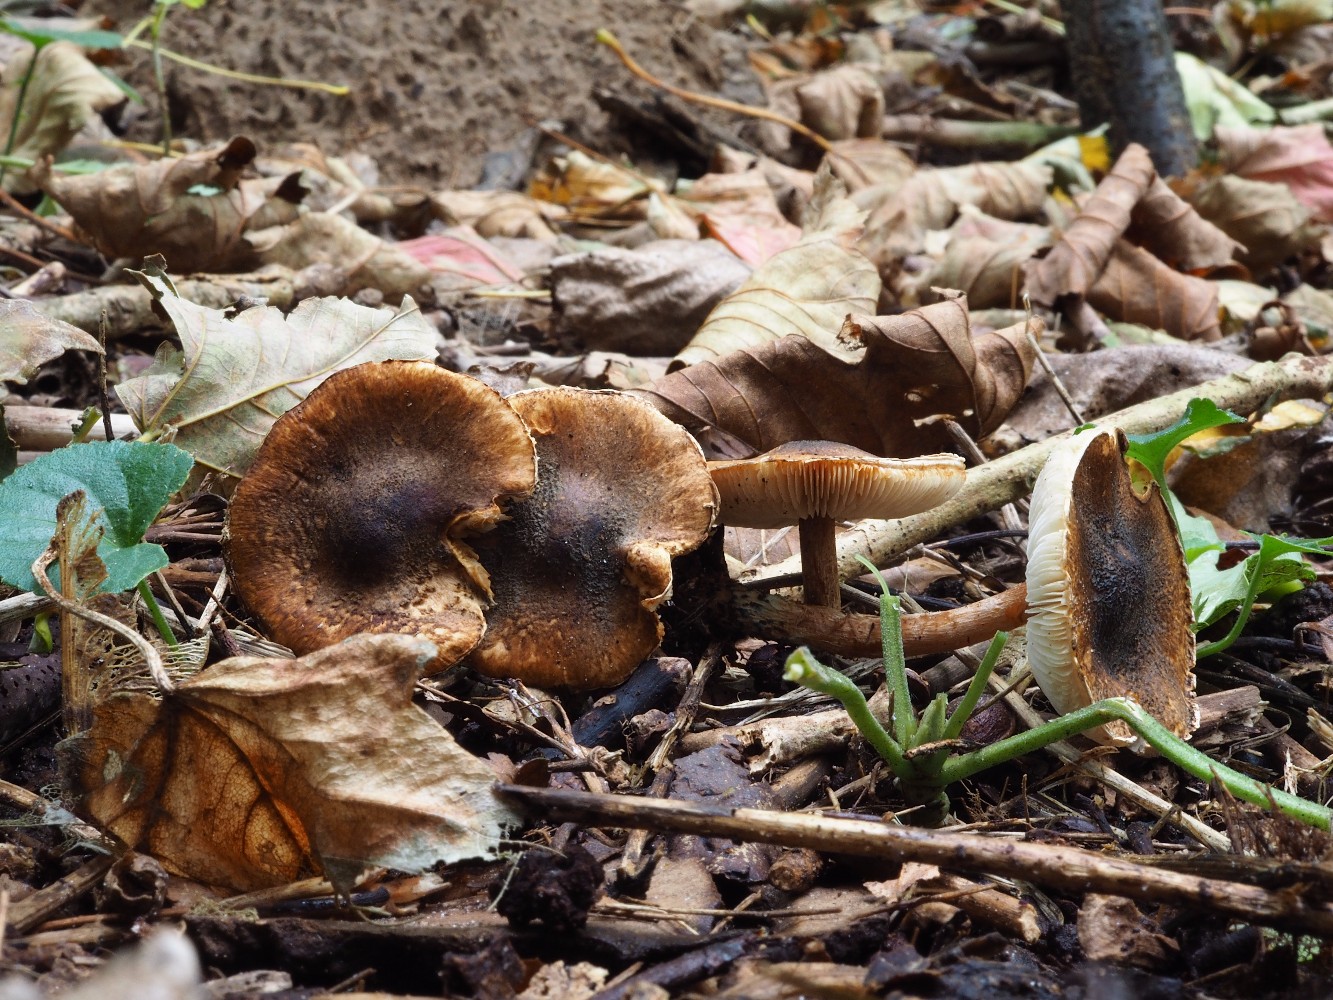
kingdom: Fungi
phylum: Basidiomycota
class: Agaricomycetes
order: Agaricales
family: Agaricaceae
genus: Lepiota
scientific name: Lepiota castanea
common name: kastaniebrun parasolhat
